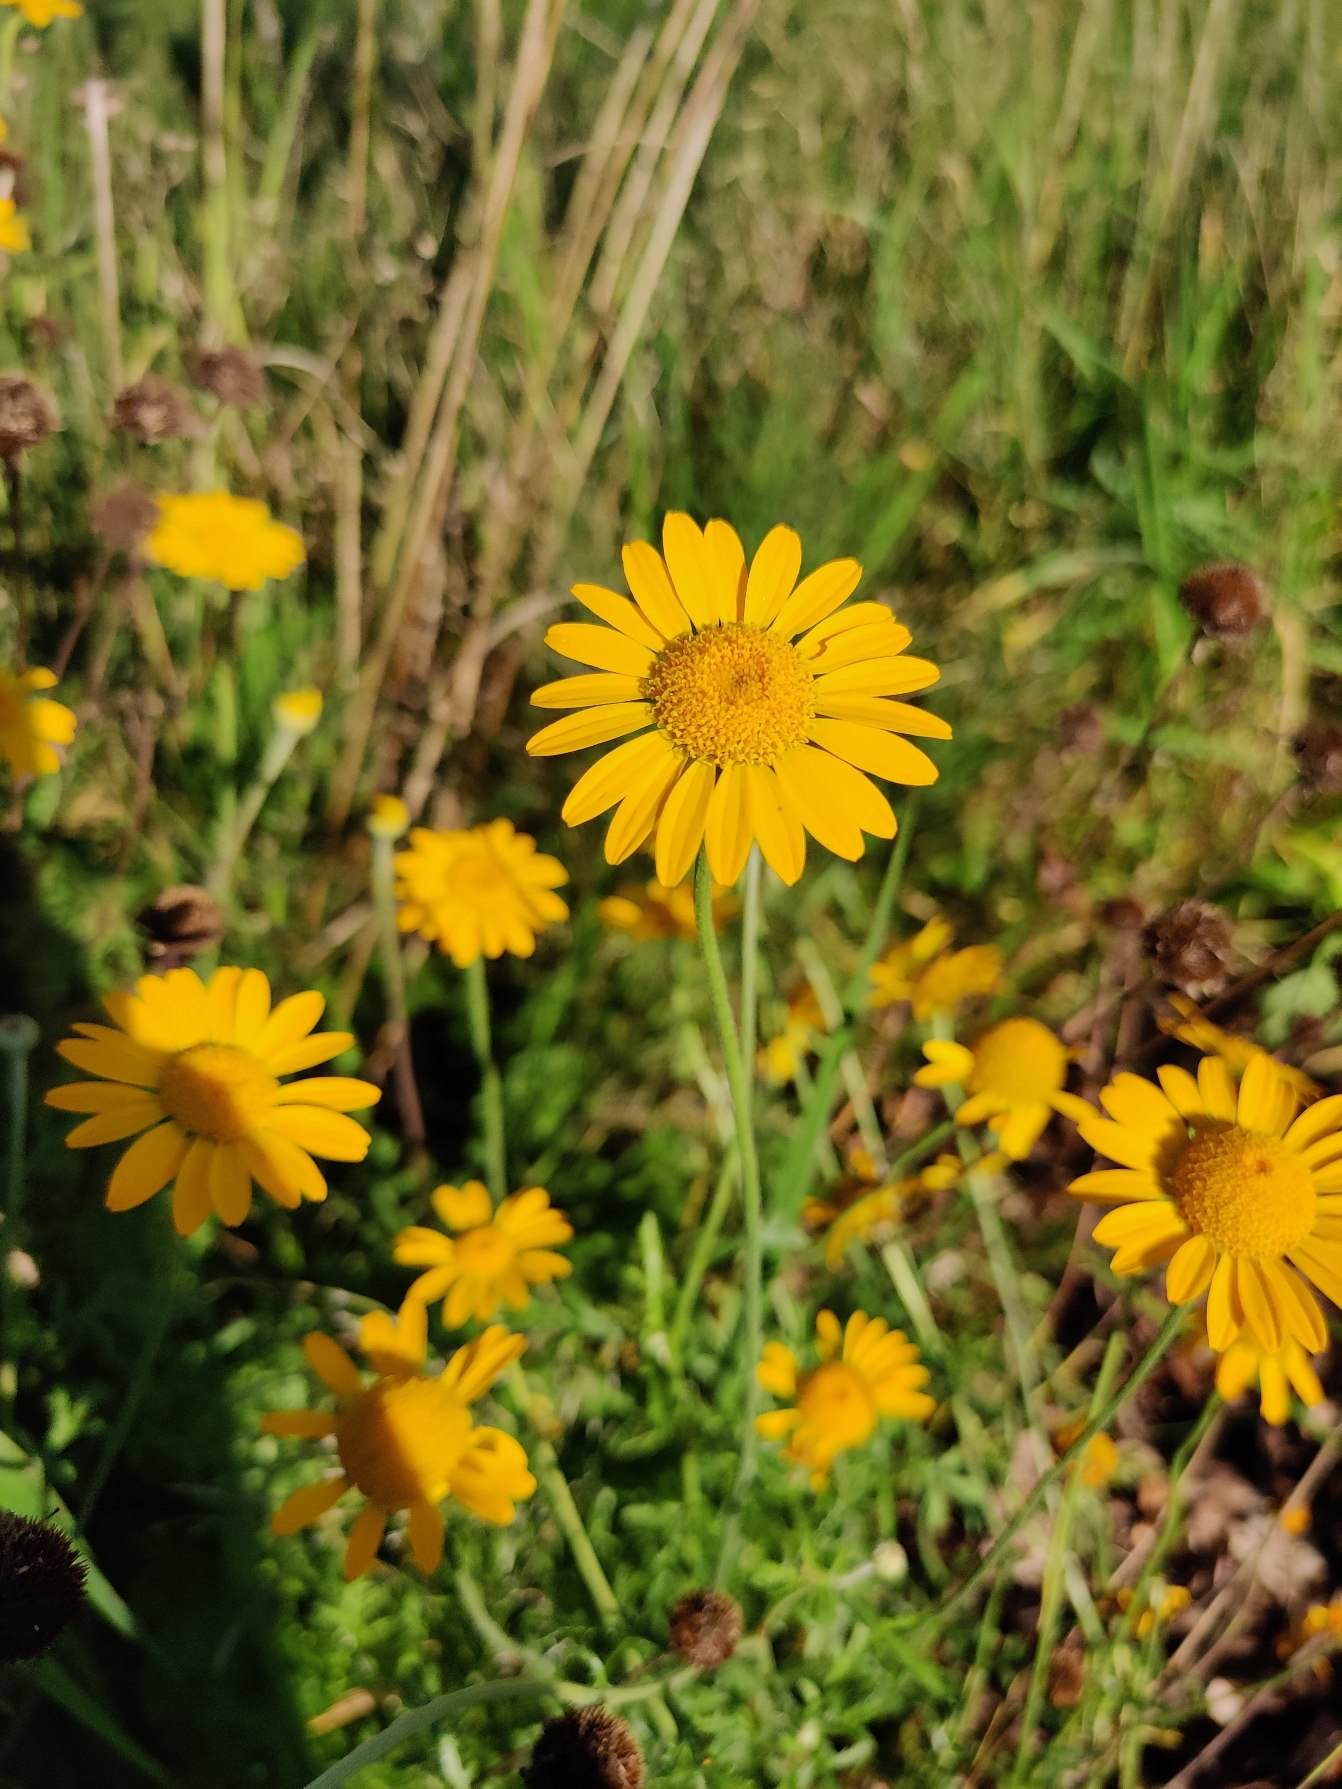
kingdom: Plantae
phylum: Tracheophyta
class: Magnoliopsida
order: Asterales
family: Asteraceae
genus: Cota
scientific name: Cota tinctoria
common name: Farve-gåseurt
